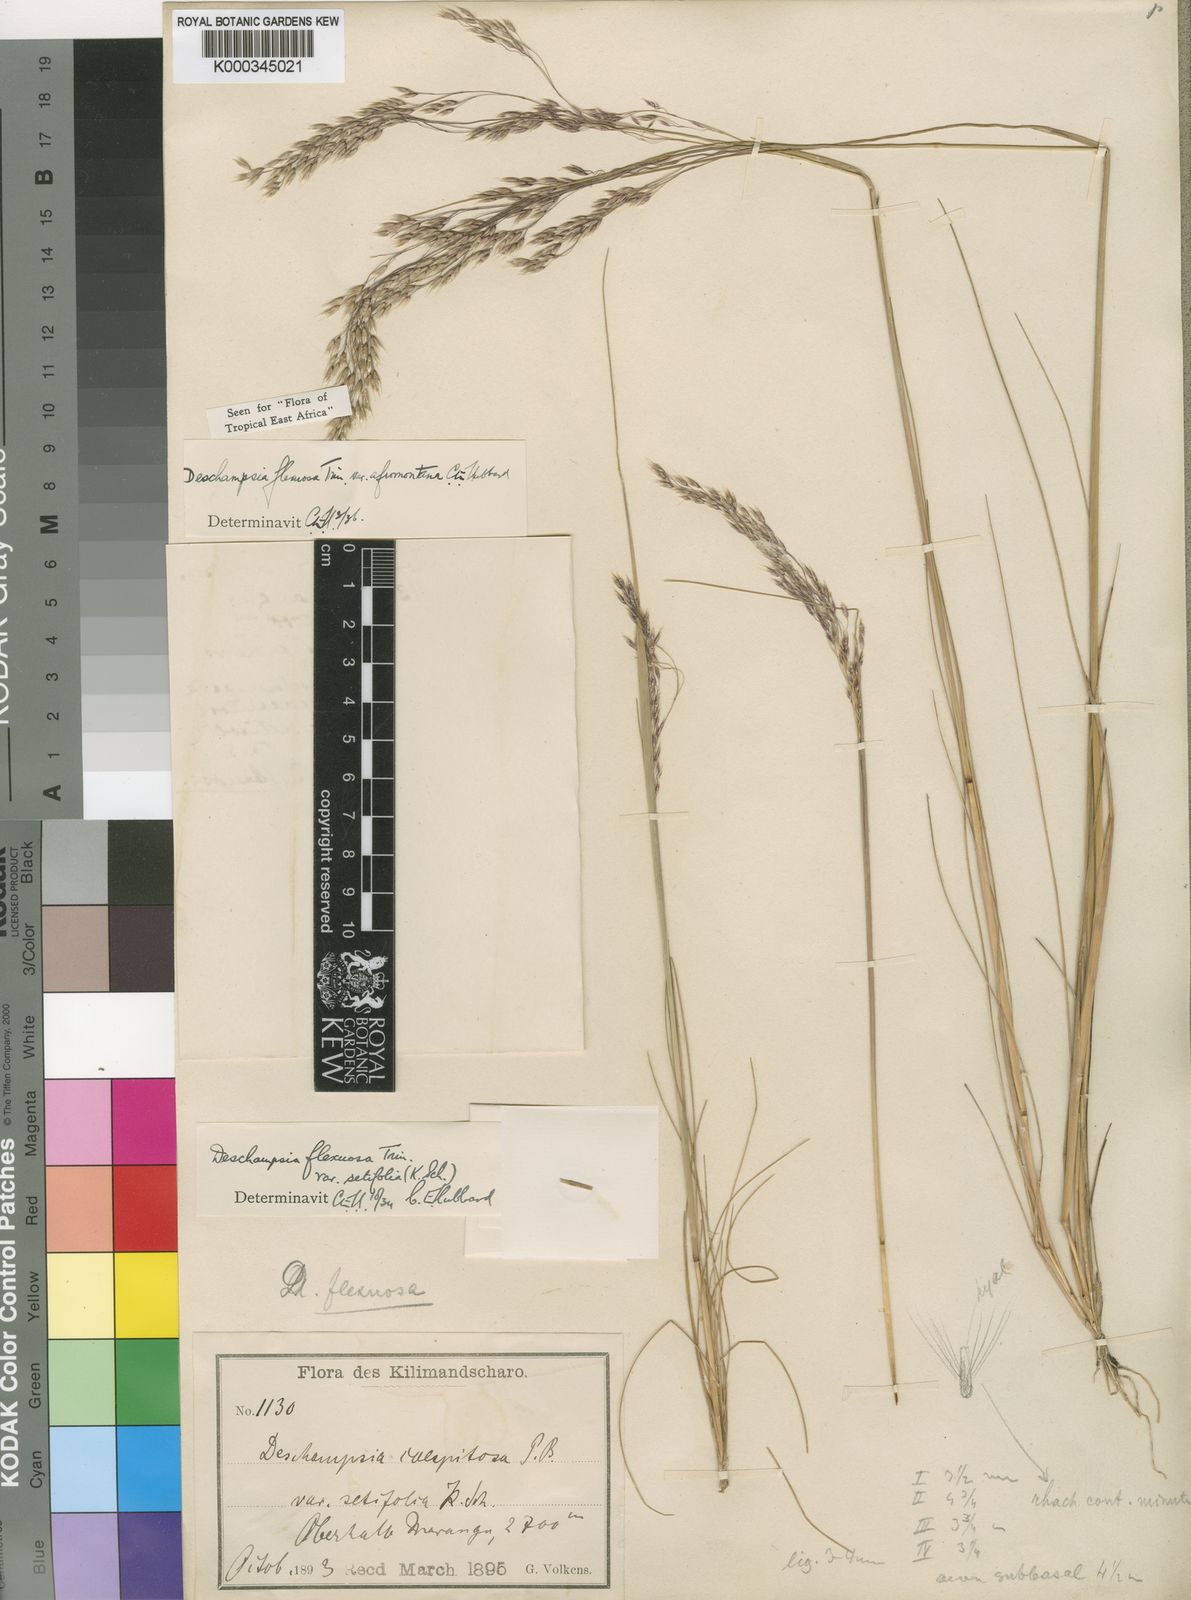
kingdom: Plantae
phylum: Tracheophyta
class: Liliopsida
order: Poales
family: Poaceae
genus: Avenella
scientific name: Avenella flexuosa
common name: Wavy hairgrass
